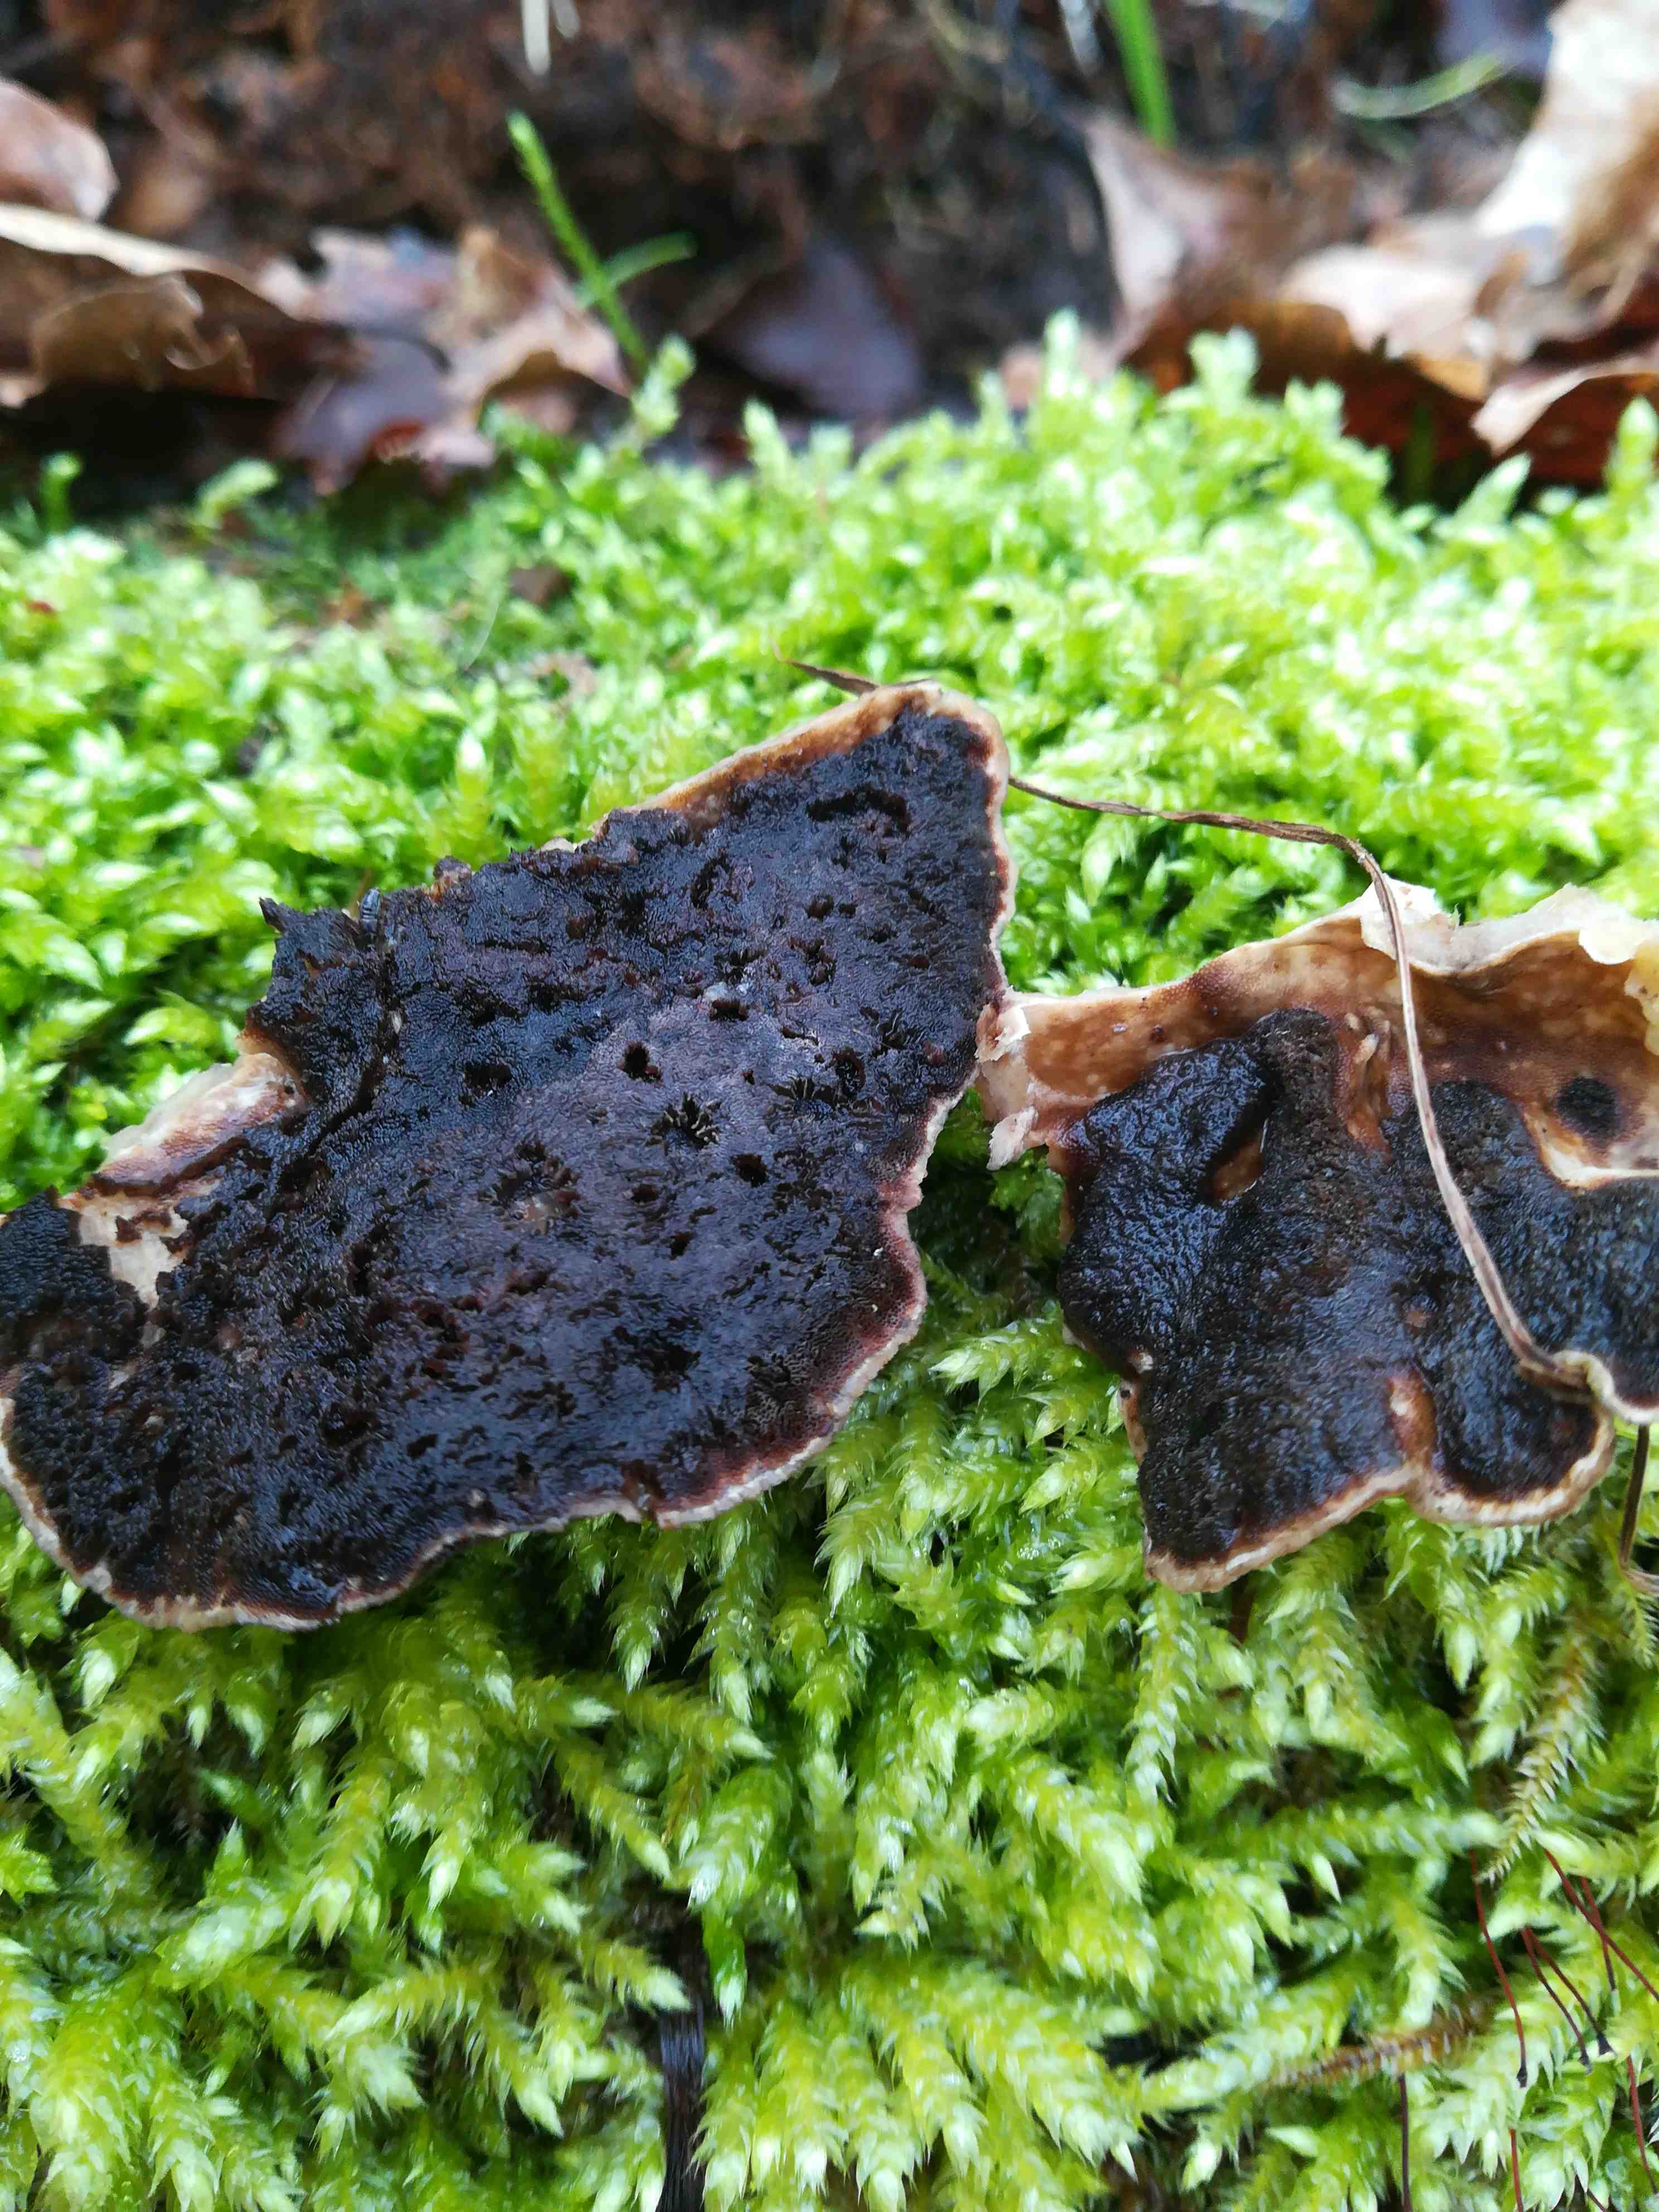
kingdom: Fungi
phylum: Basidiomycota
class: Agaricomycetes
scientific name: Agaricomycetes
